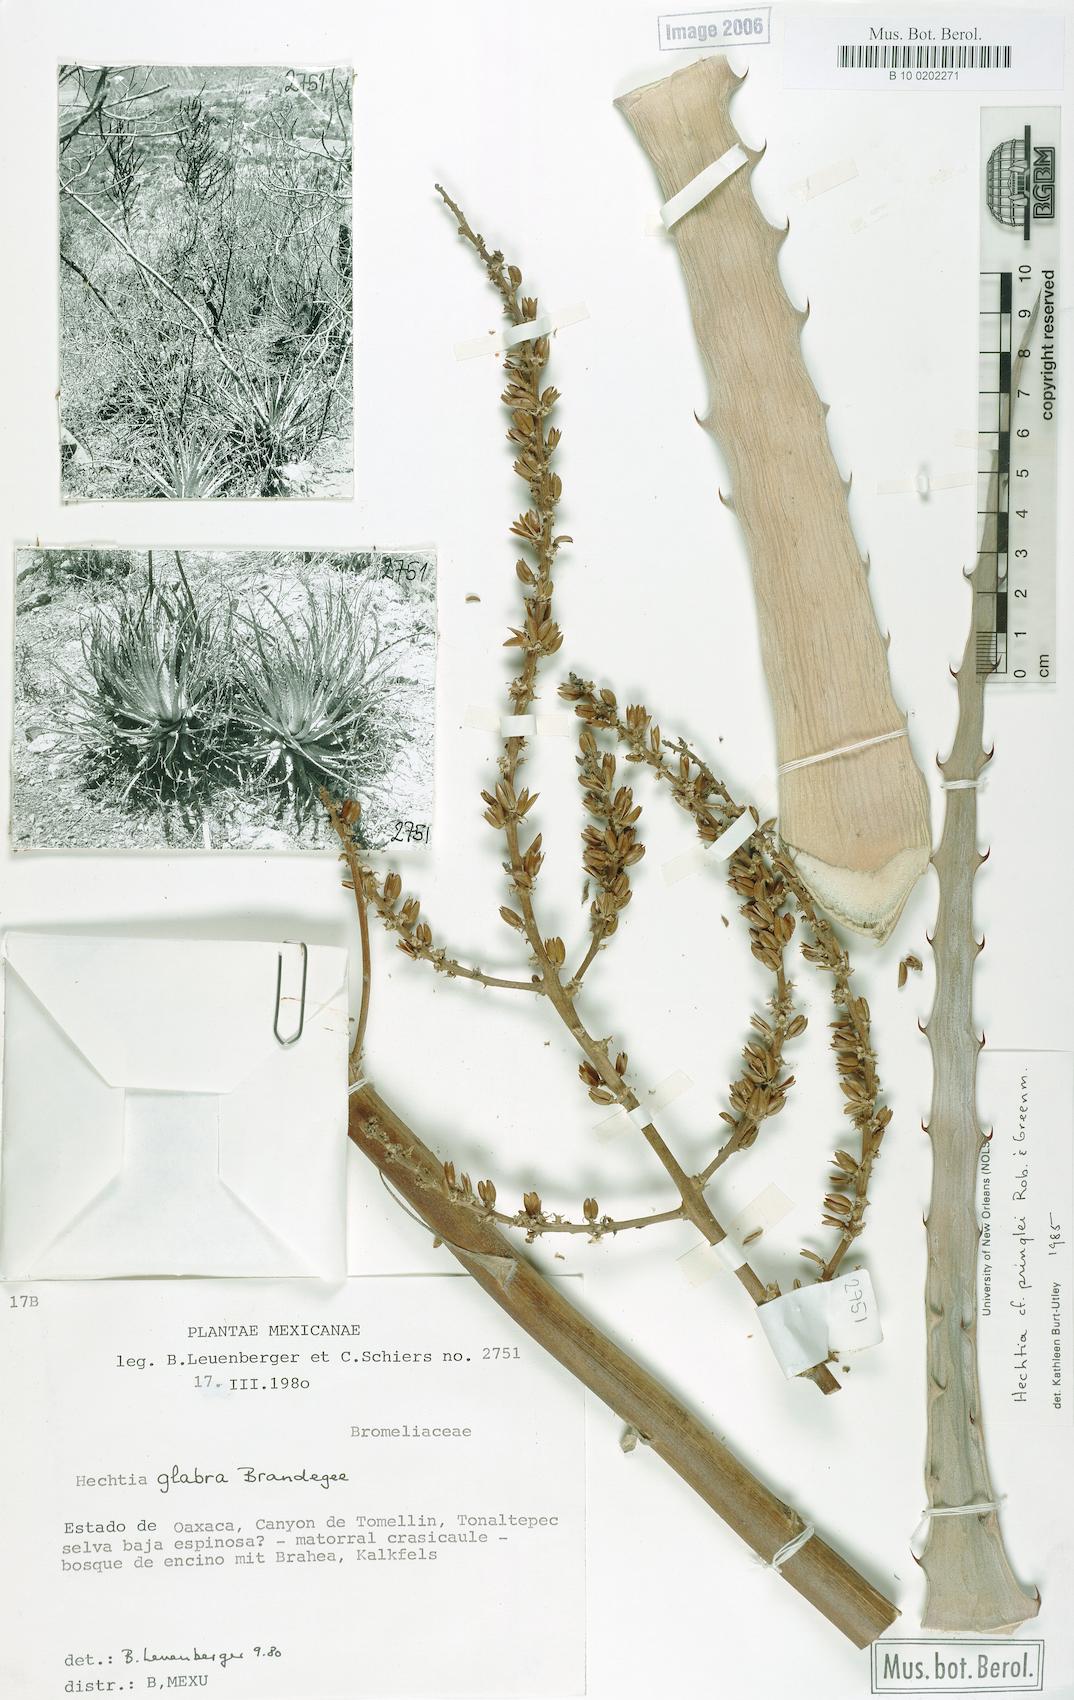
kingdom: Plantae
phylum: Tracheophyta
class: Liliopsida
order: Poales
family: Bromeliaceae
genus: Hechtia
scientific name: Hechtia pringlei
